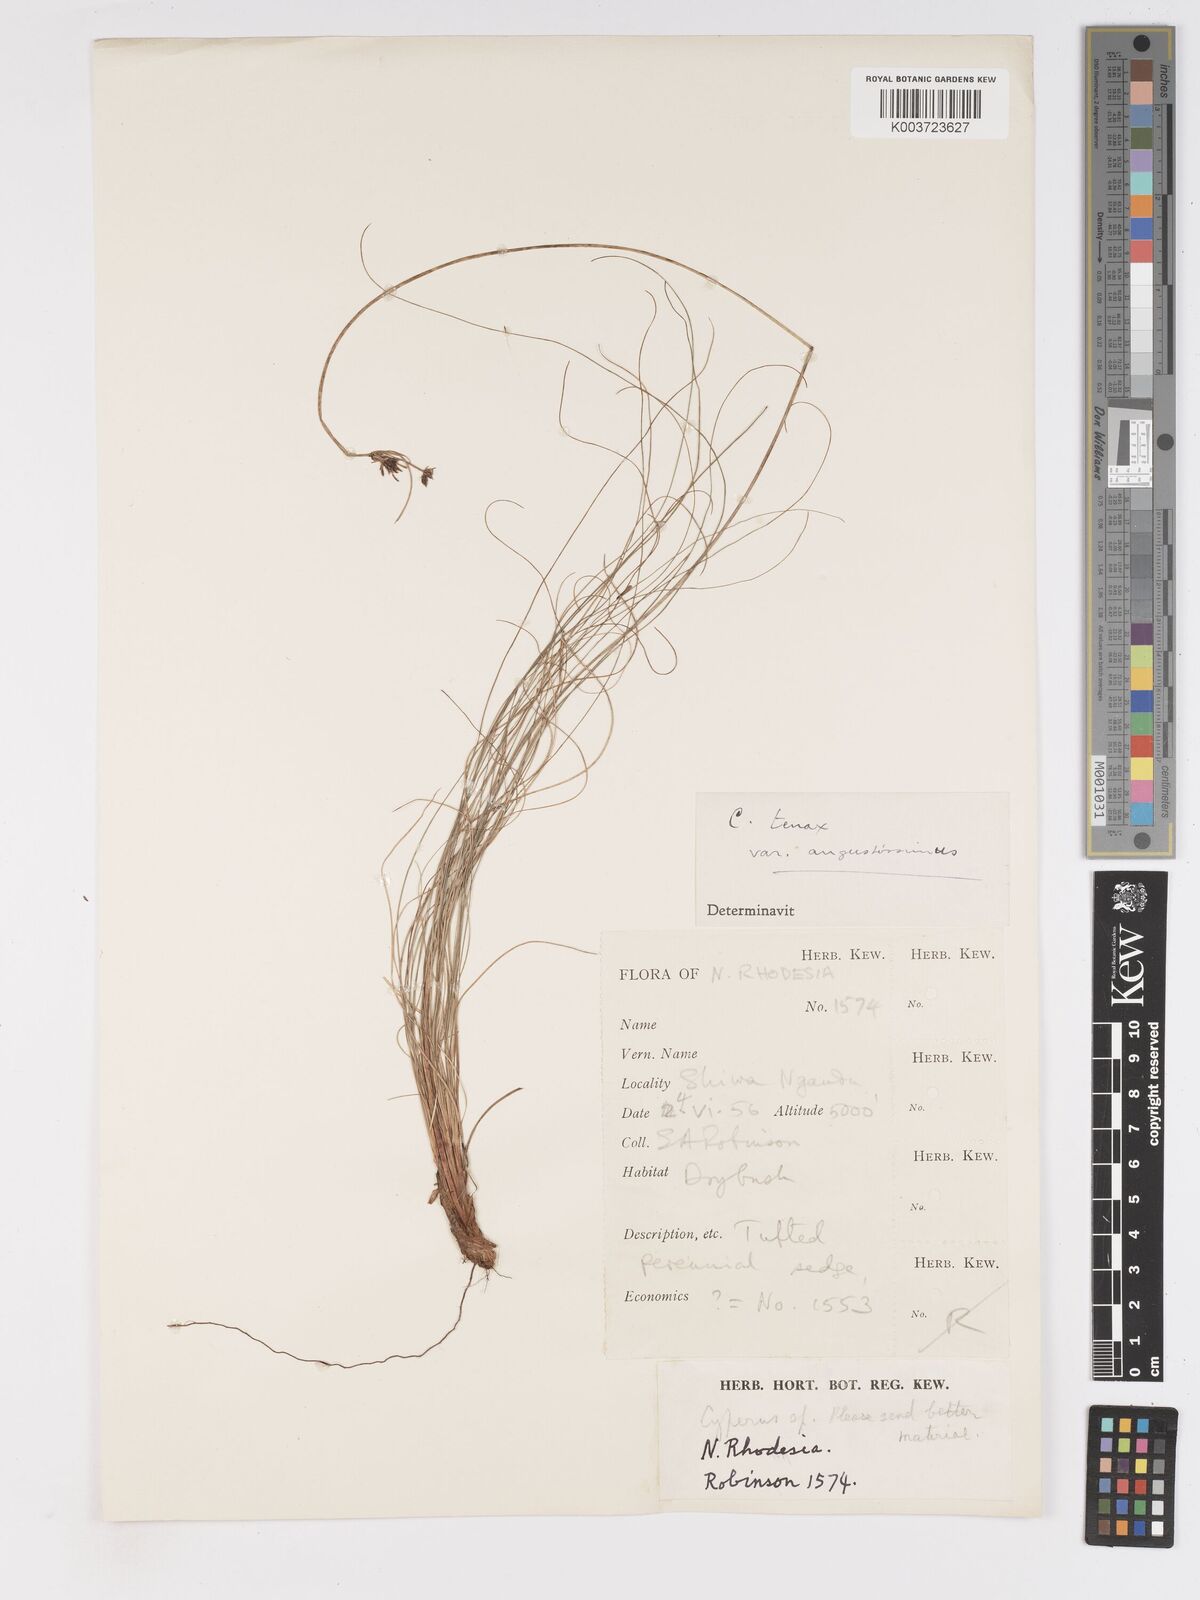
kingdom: Plantae
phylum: Tracheophyta
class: Liliopsida
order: Poales
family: Cyperaceae
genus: Cyperus
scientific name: Cyperus tenax
